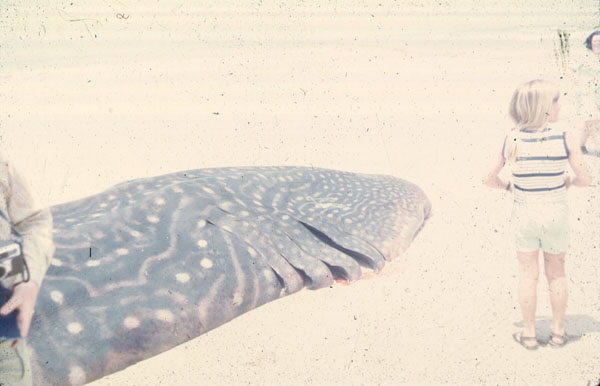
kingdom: Animalia
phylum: Chordata
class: Elasmobranchii
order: Orectolobiformes
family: Rhincodontidae
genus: Rhincodon
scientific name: Rhincodon typus
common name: Whale shark
